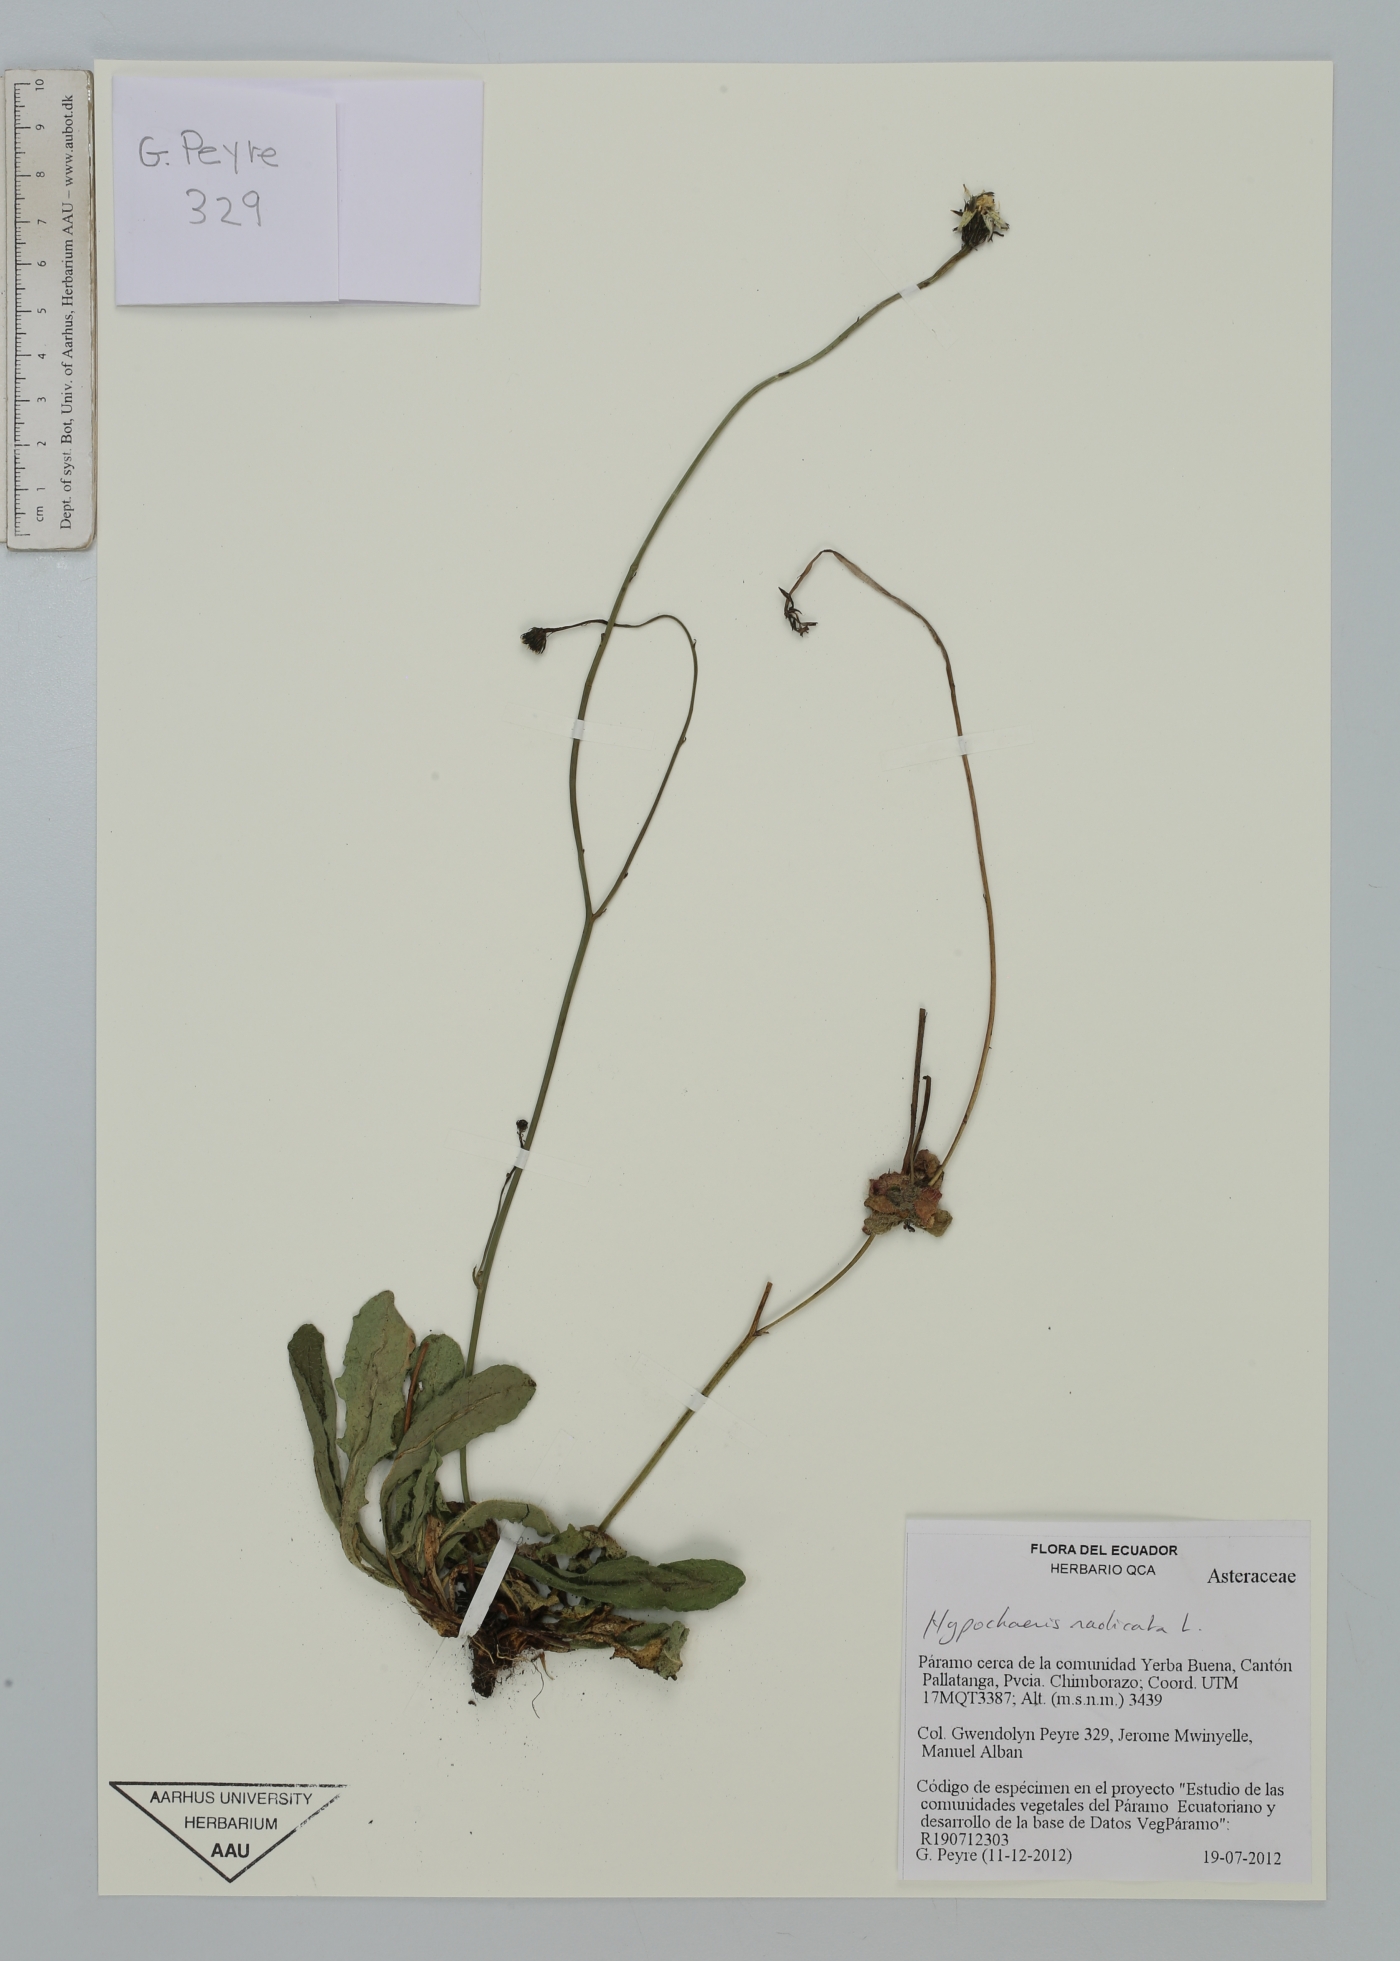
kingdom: Plantae
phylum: Tracheophyta
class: Magnoliopsida
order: Asterales
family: Asteraceae
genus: Hypochaeris
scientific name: Hypochaeris radicata
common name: Flatweed
